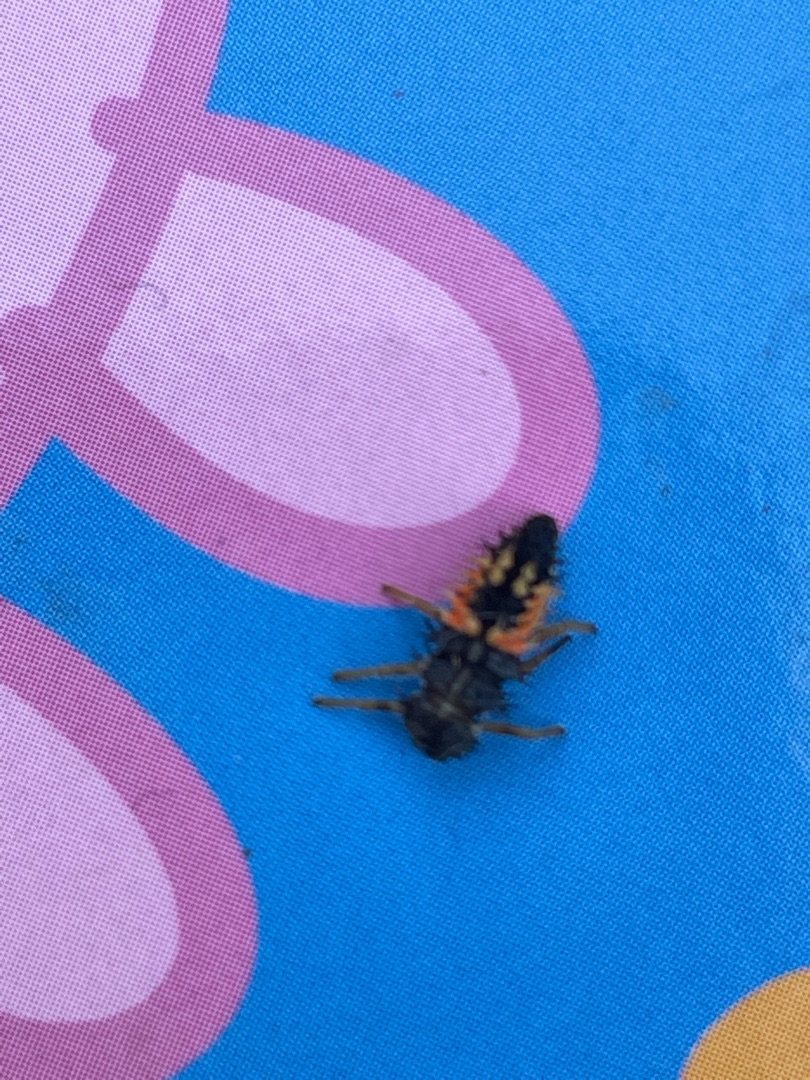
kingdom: Animalia
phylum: Arthropoda
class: Insecta
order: Coleoptera
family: Coccinellidae
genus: Harmonia
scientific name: Harmonia axyridis
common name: Harlekinmariehøne
